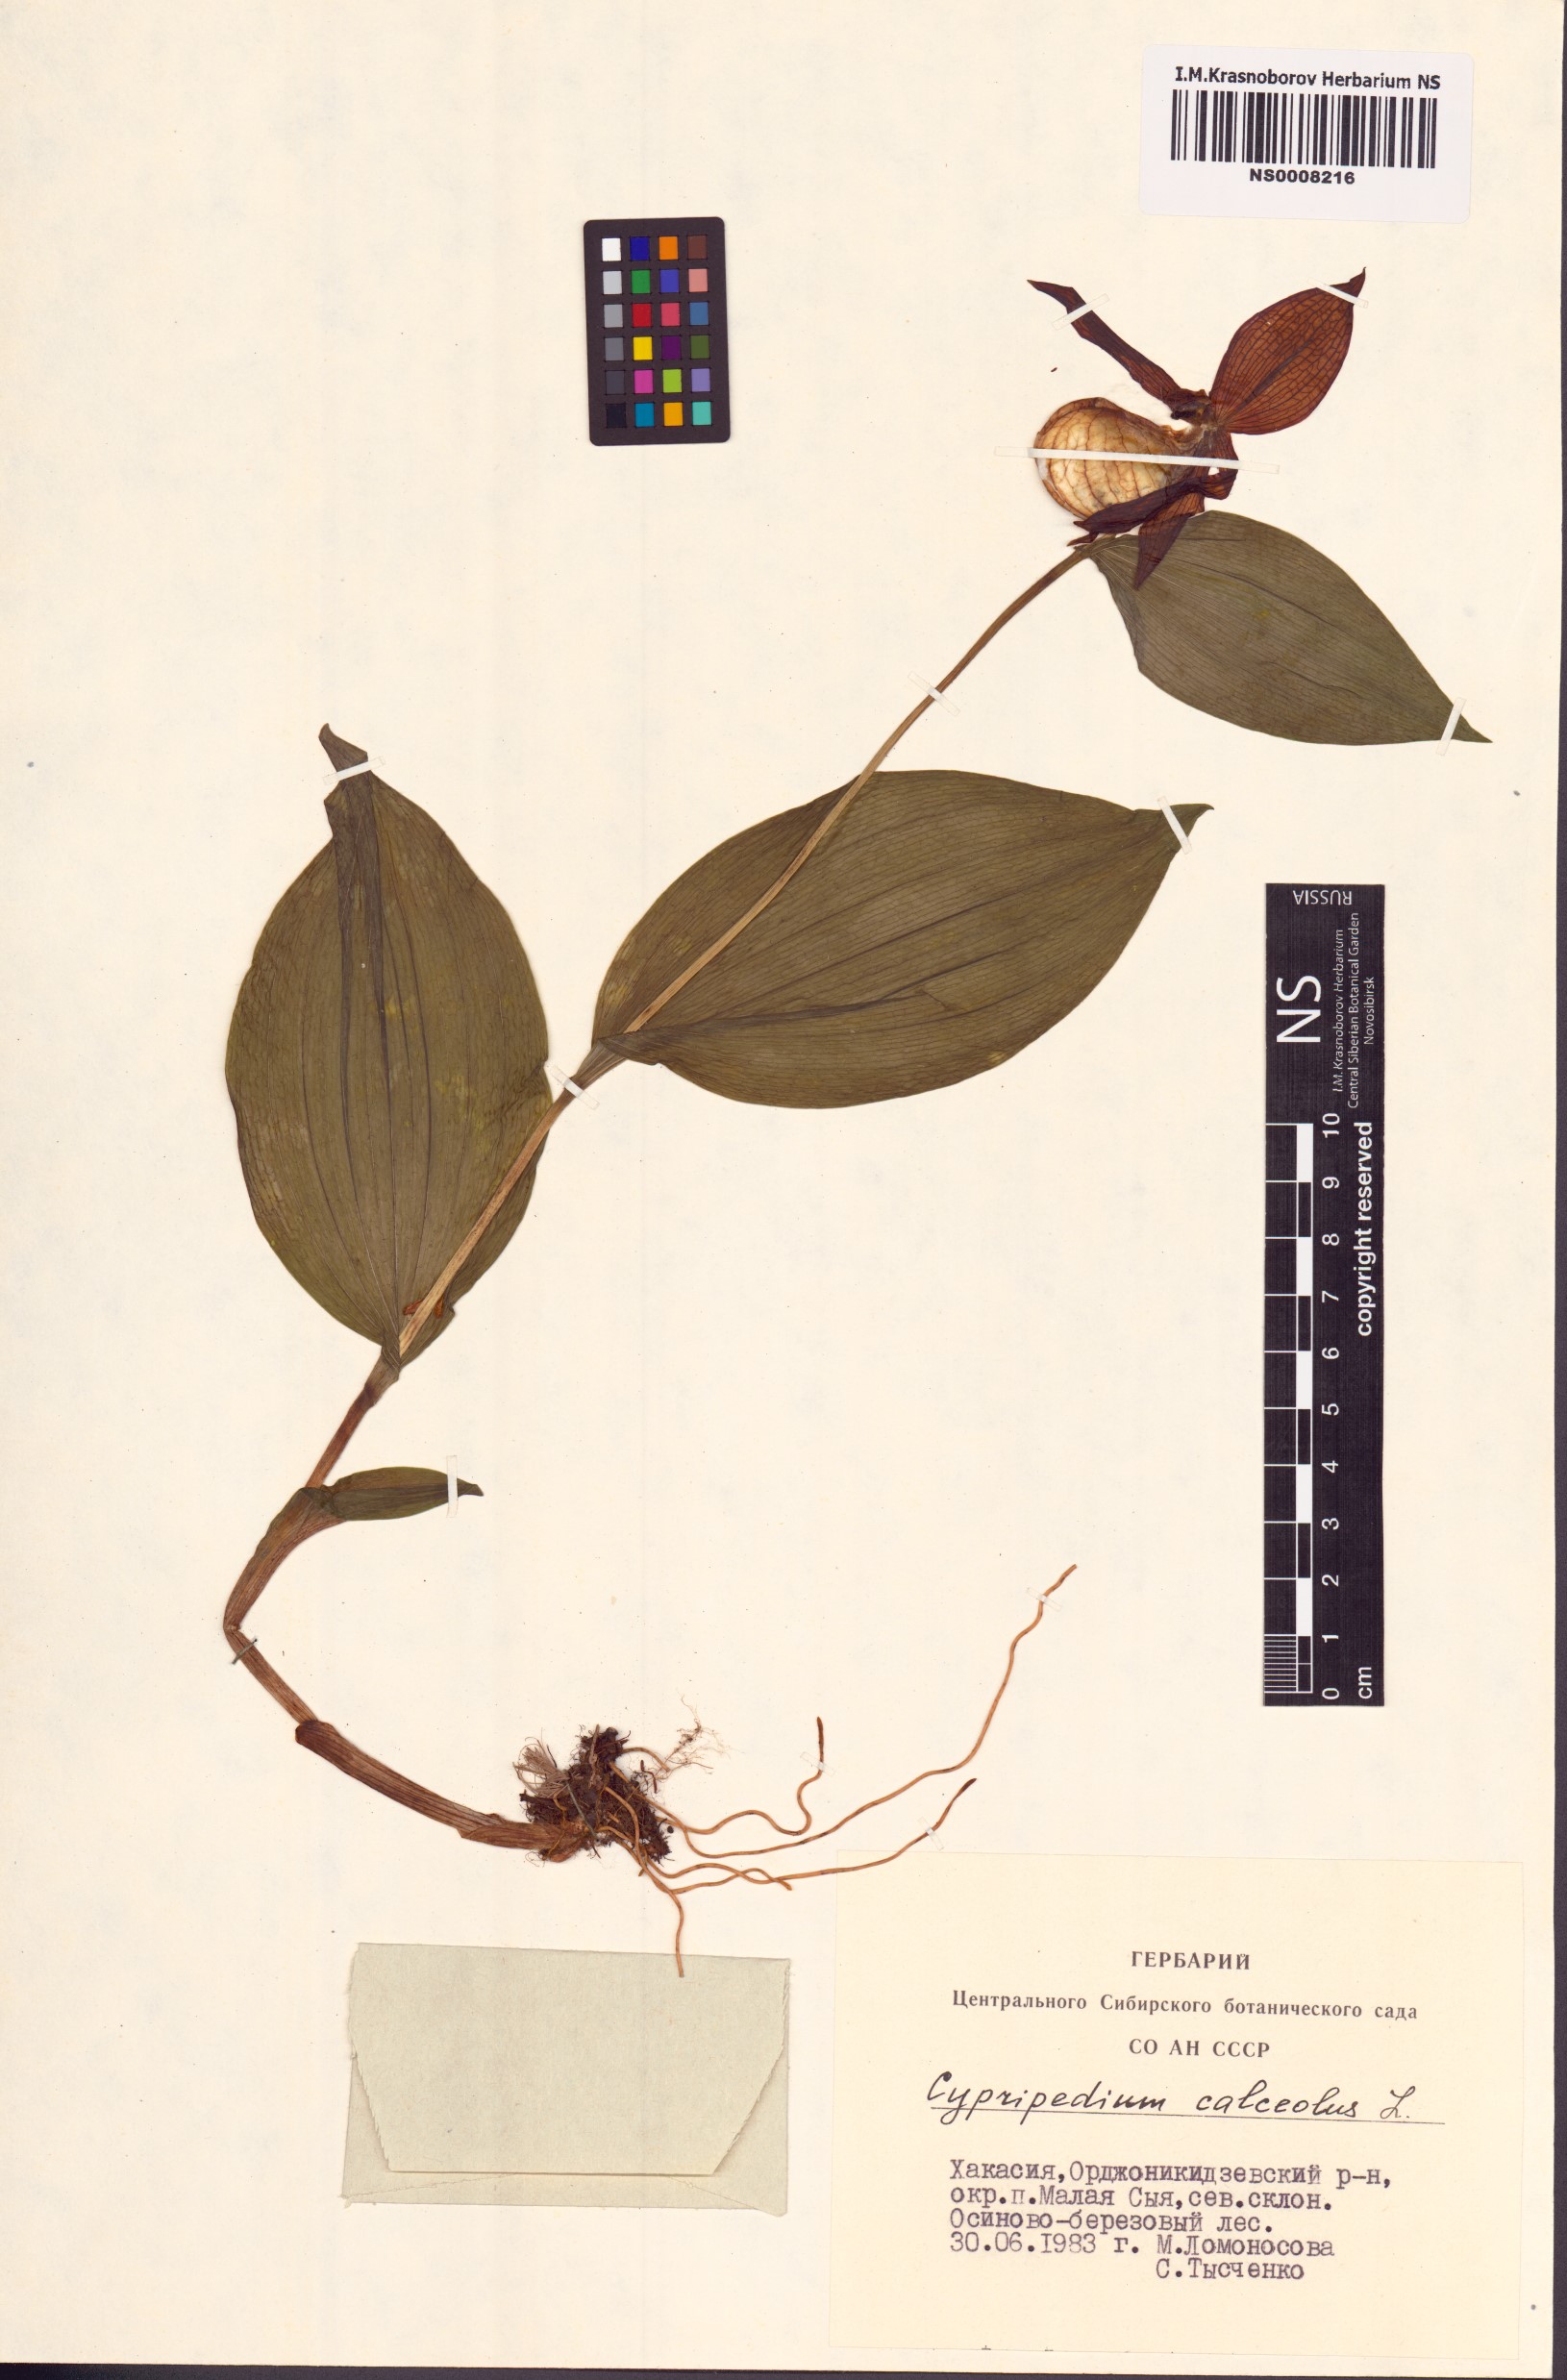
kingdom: Plantae
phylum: Tracheophyta
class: Liliopsida
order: Asparagales
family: Orchidaceae
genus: Cypripedium
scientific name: Cypripedium calceolus
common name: Lady's-slipper
